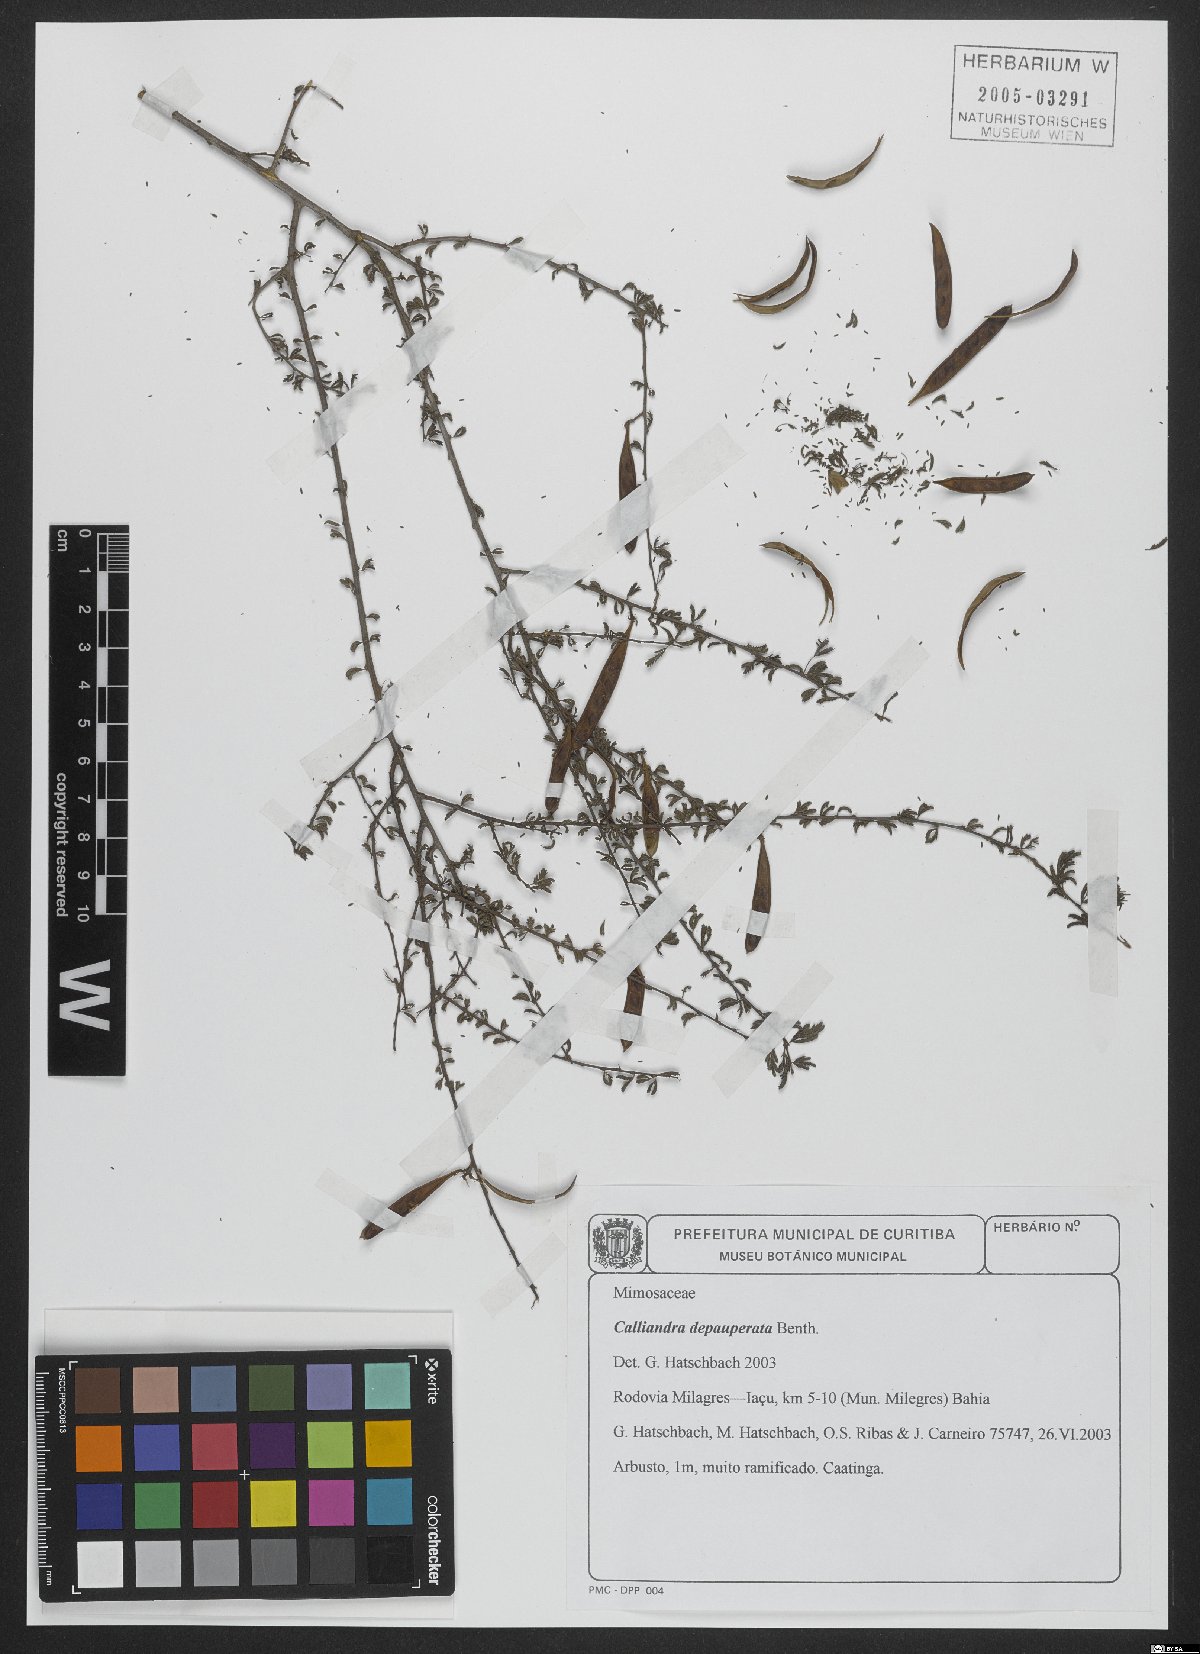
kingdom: Plantae
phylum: Tracheophyta
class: Magnoliopsida
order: Fabales
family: Fabaceae
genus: Calliandra
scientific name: Calliandra depauperata
